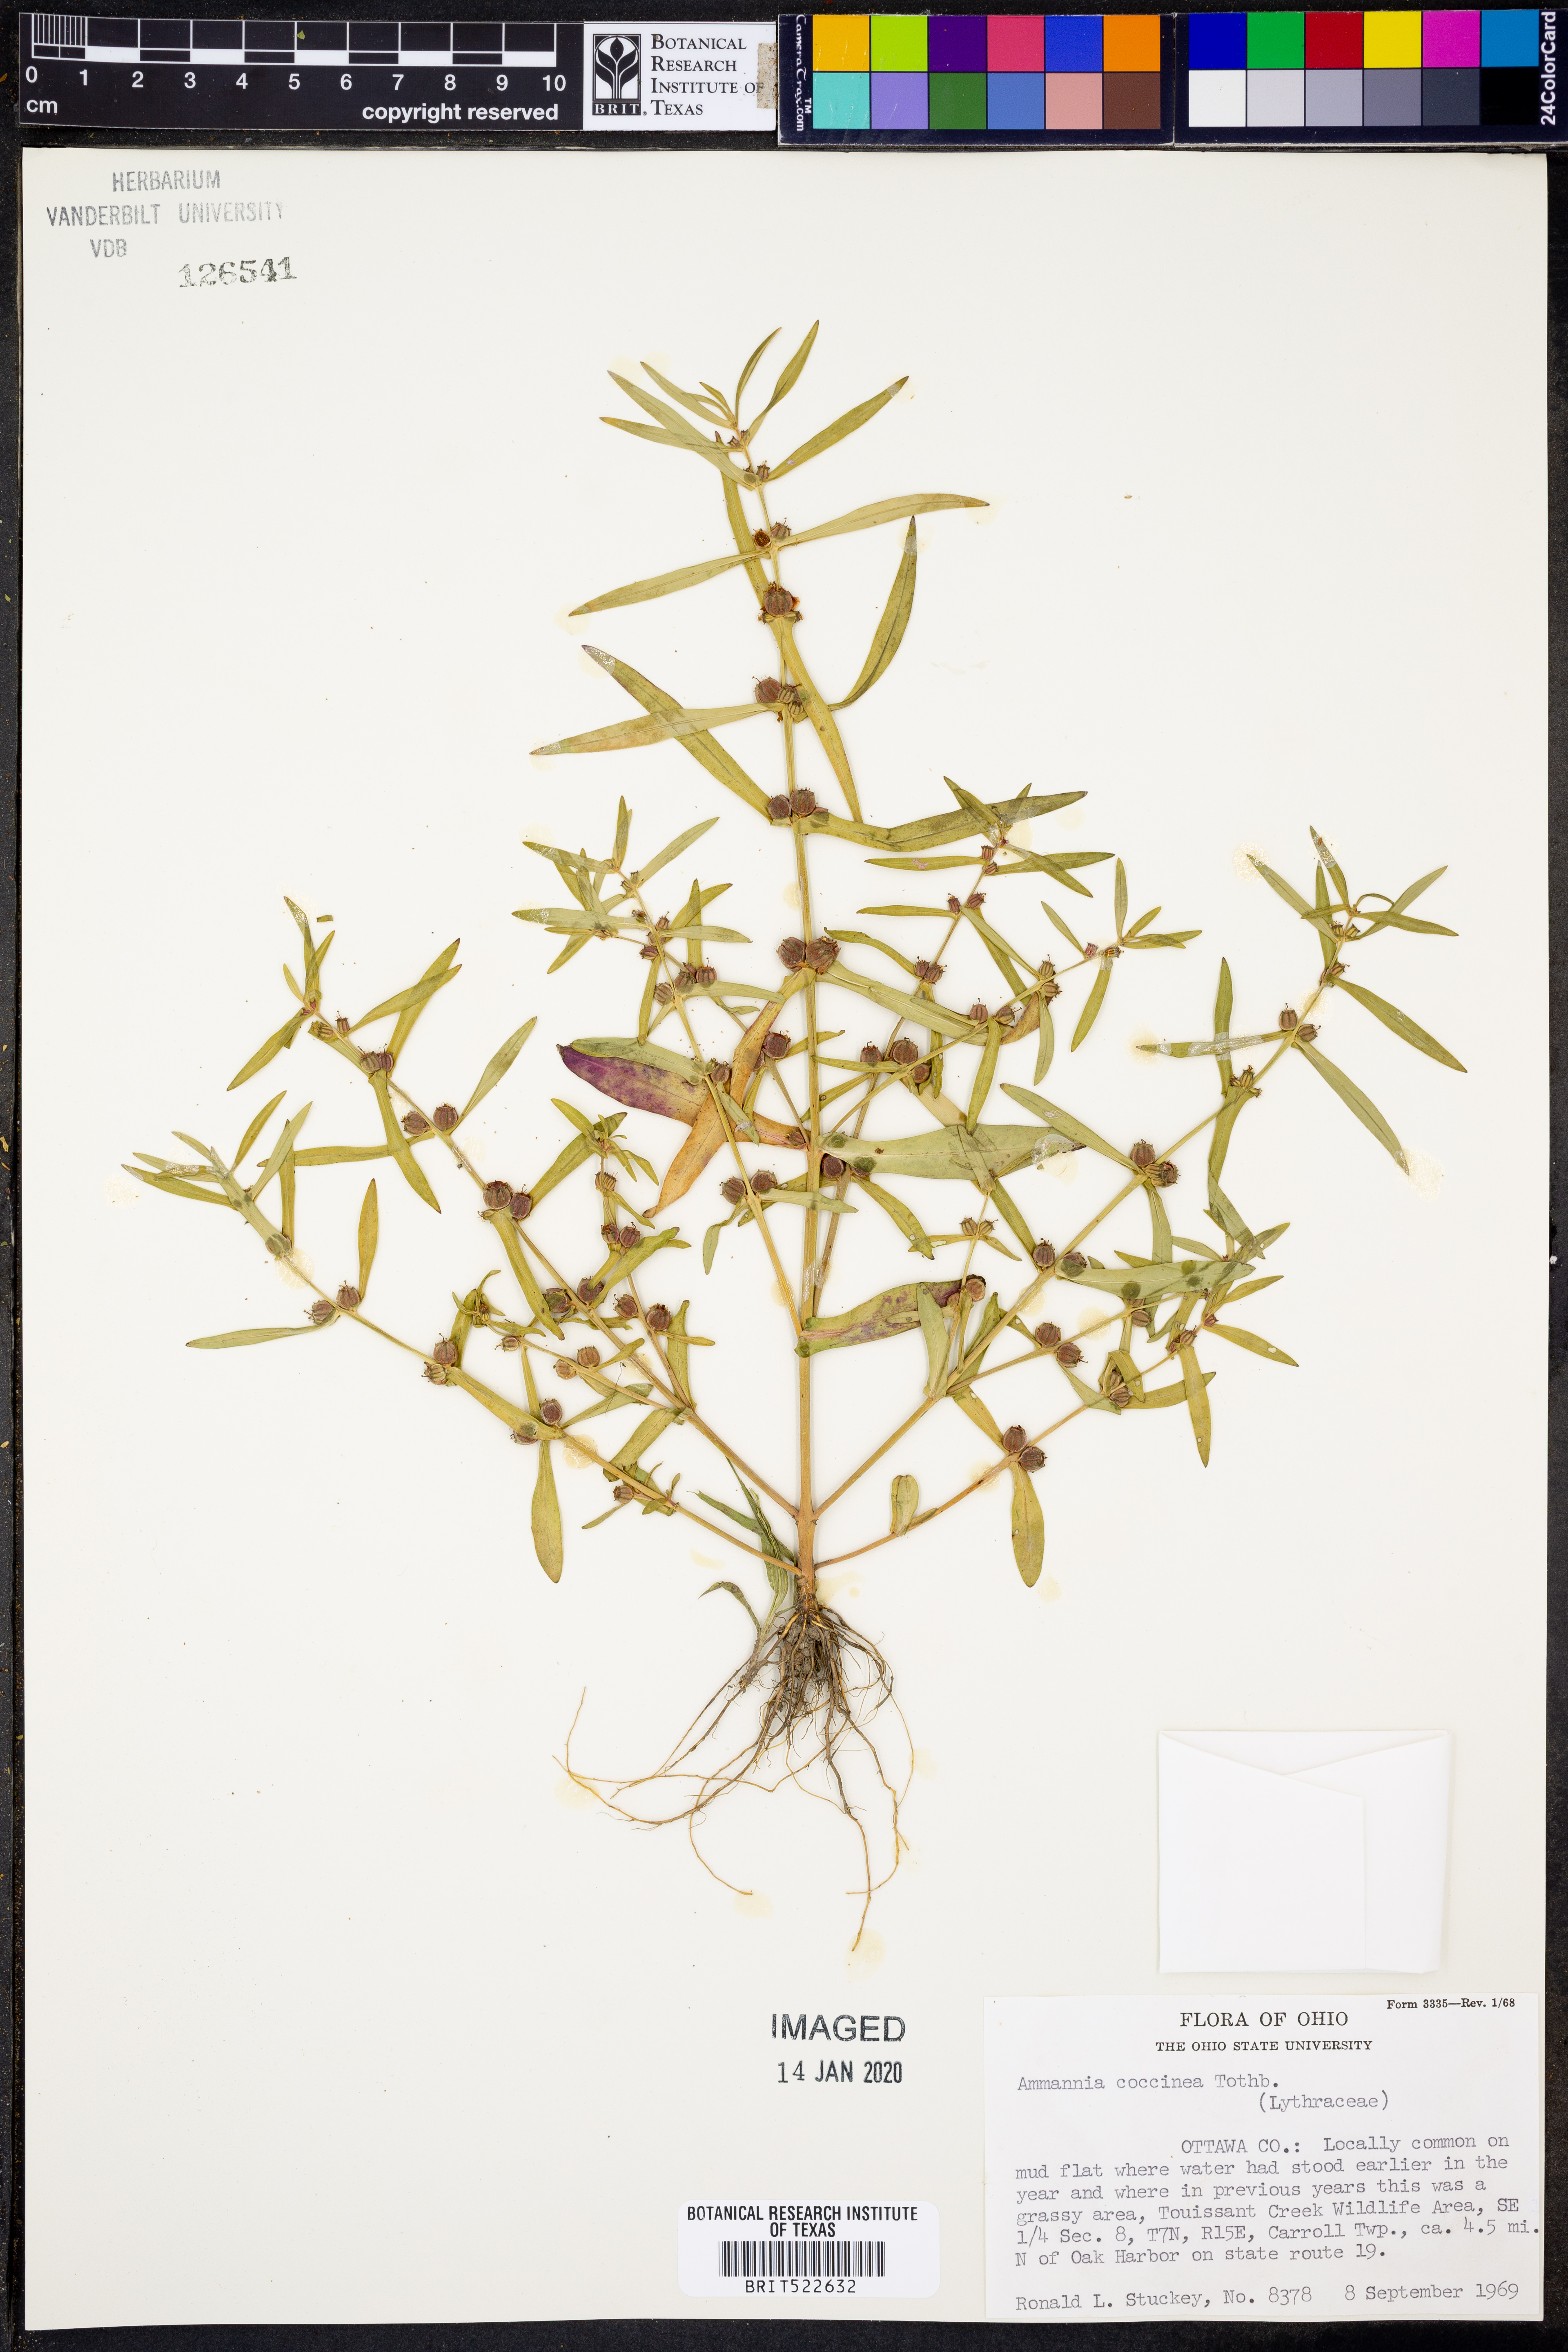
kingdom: Plantae
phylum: Tracheophyta
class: Magnoliopsida
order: Myrtales
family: Lythraceae
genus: Ammannia
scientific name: Ammannia coccinea
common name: Valley redstem
